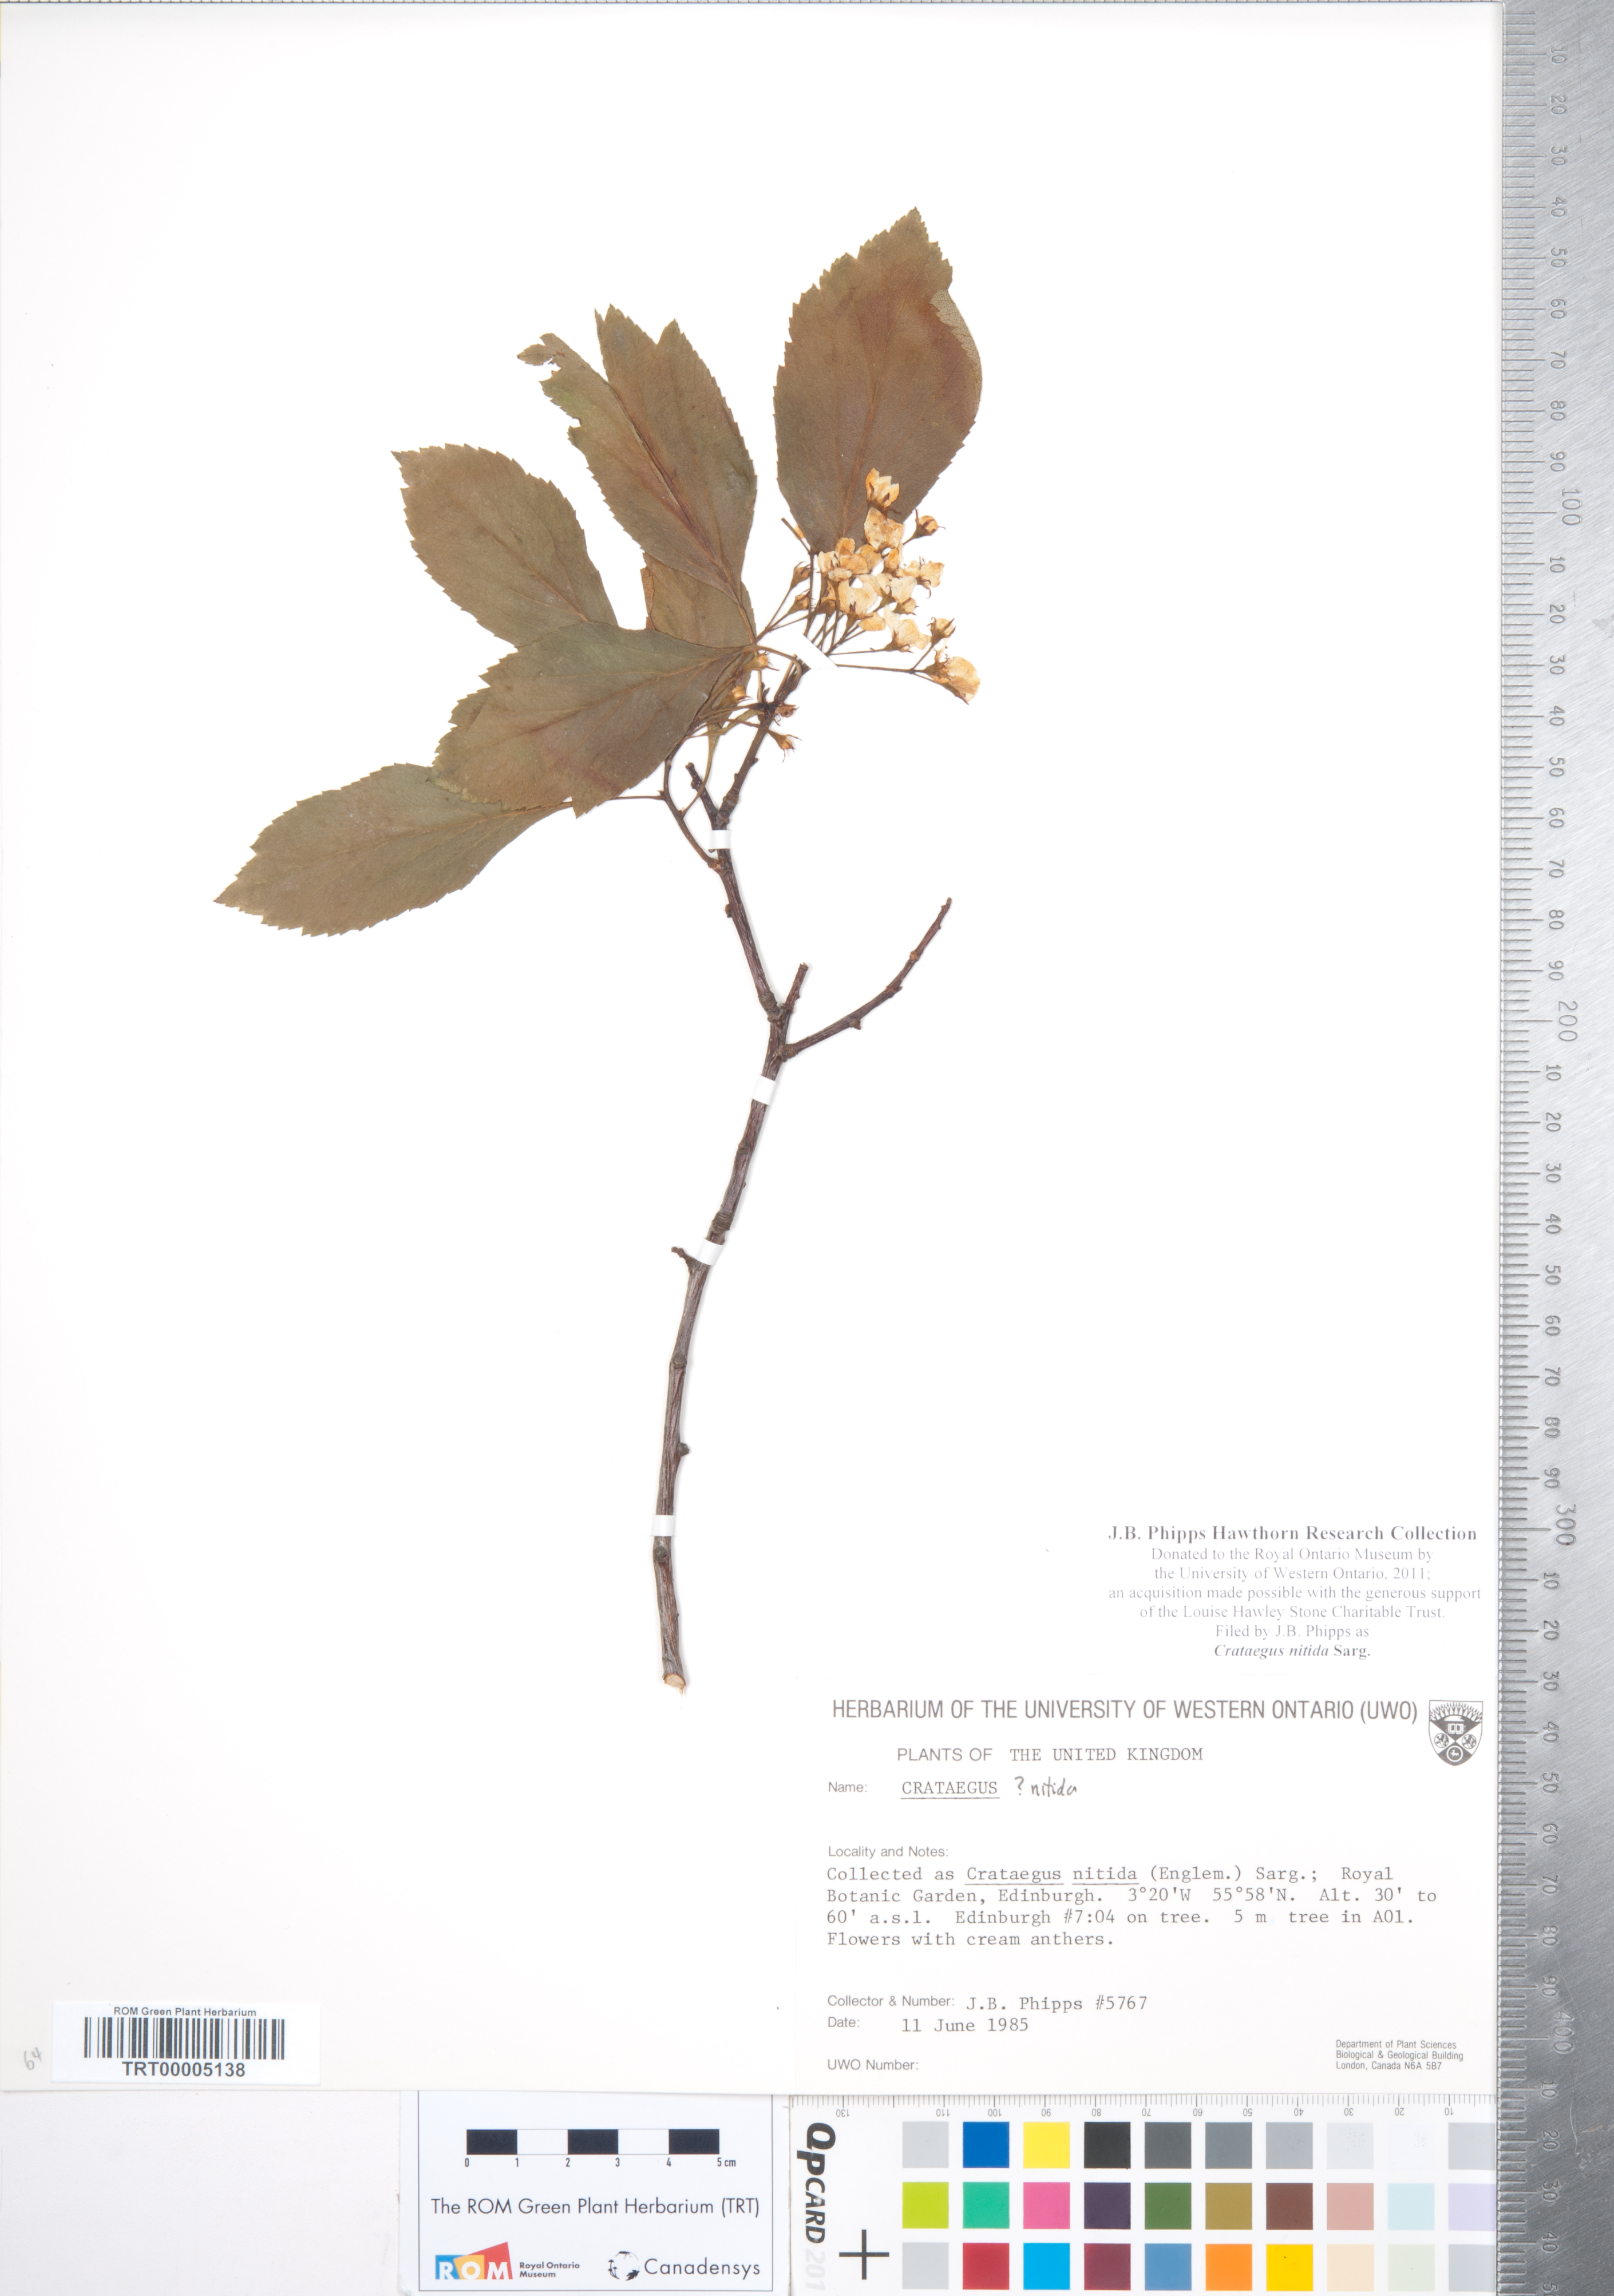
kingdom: Plantae
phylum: Tracheophyta
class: Magnoliopsida
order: Rosales
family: Rosaceae
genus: Crataegus
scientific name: Crataegus nitida
